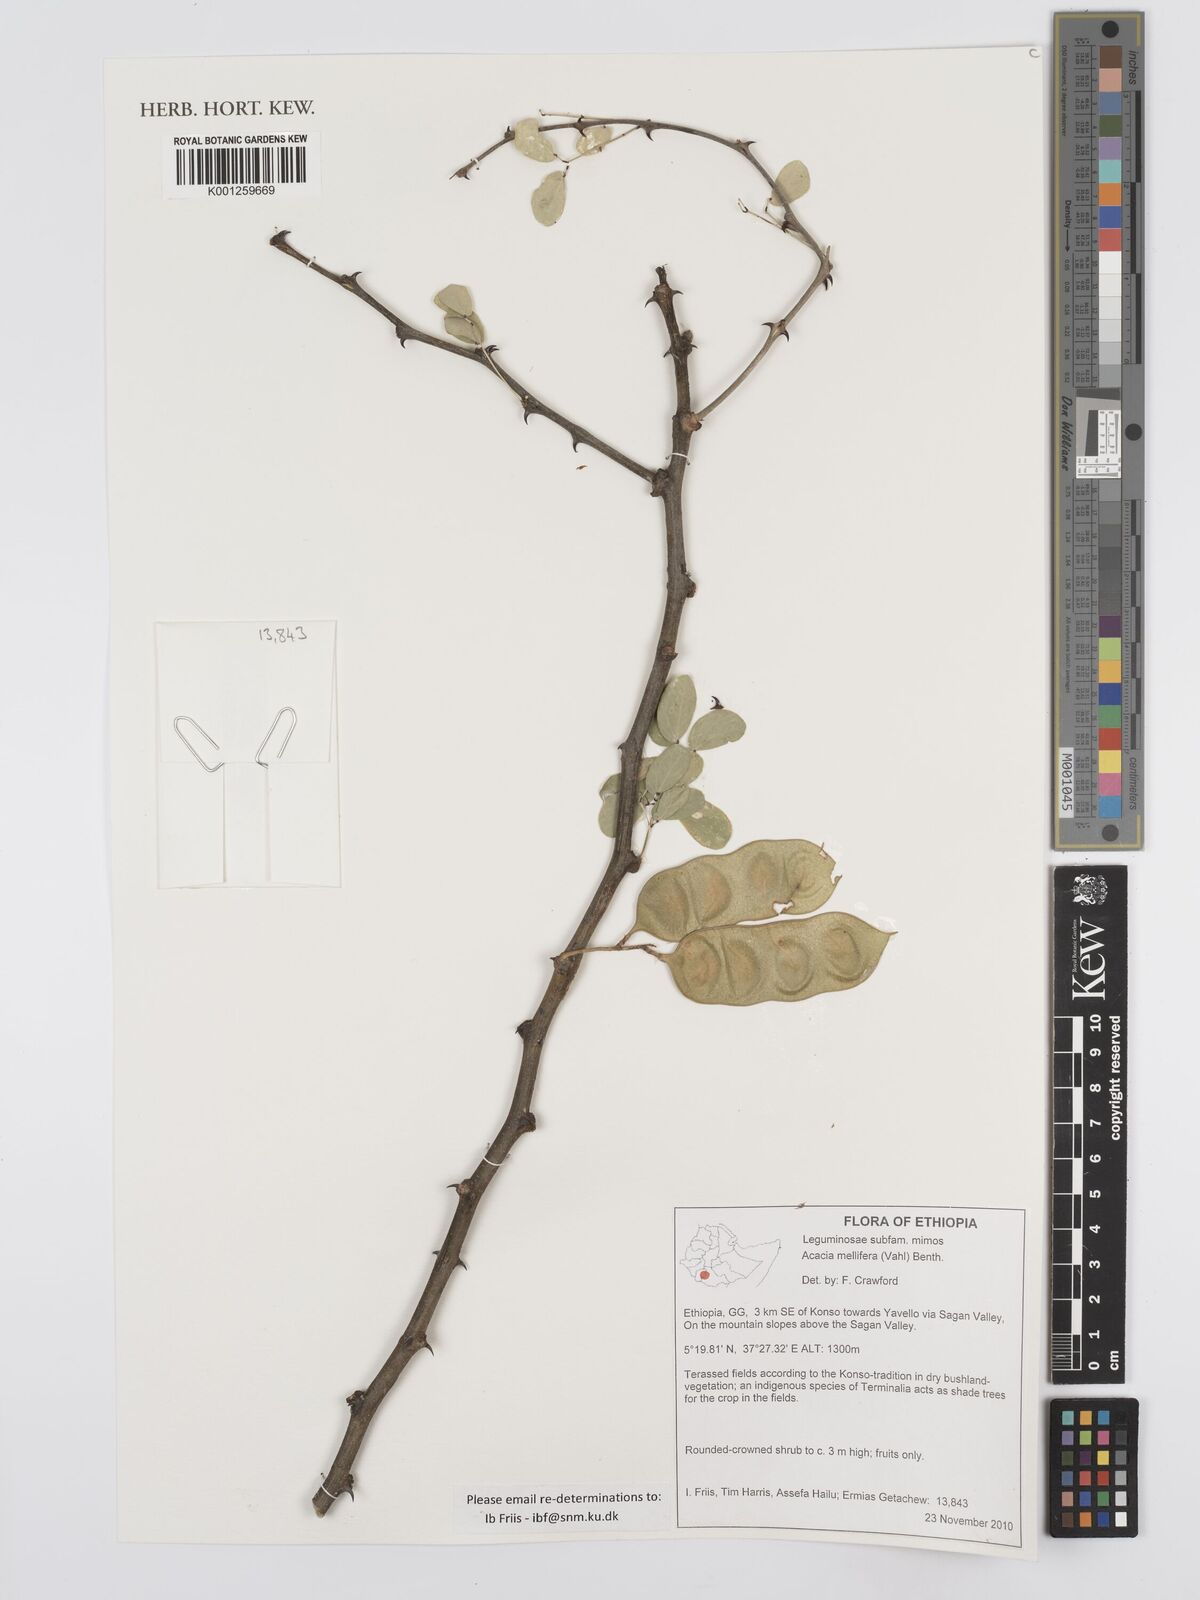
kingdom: Plantae
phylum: Tracheophyta
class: Magnoliopsida
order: Fabales
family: Fabaceae
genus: Senegalia
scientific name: Senegalia mellifera
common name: Hookthorn
